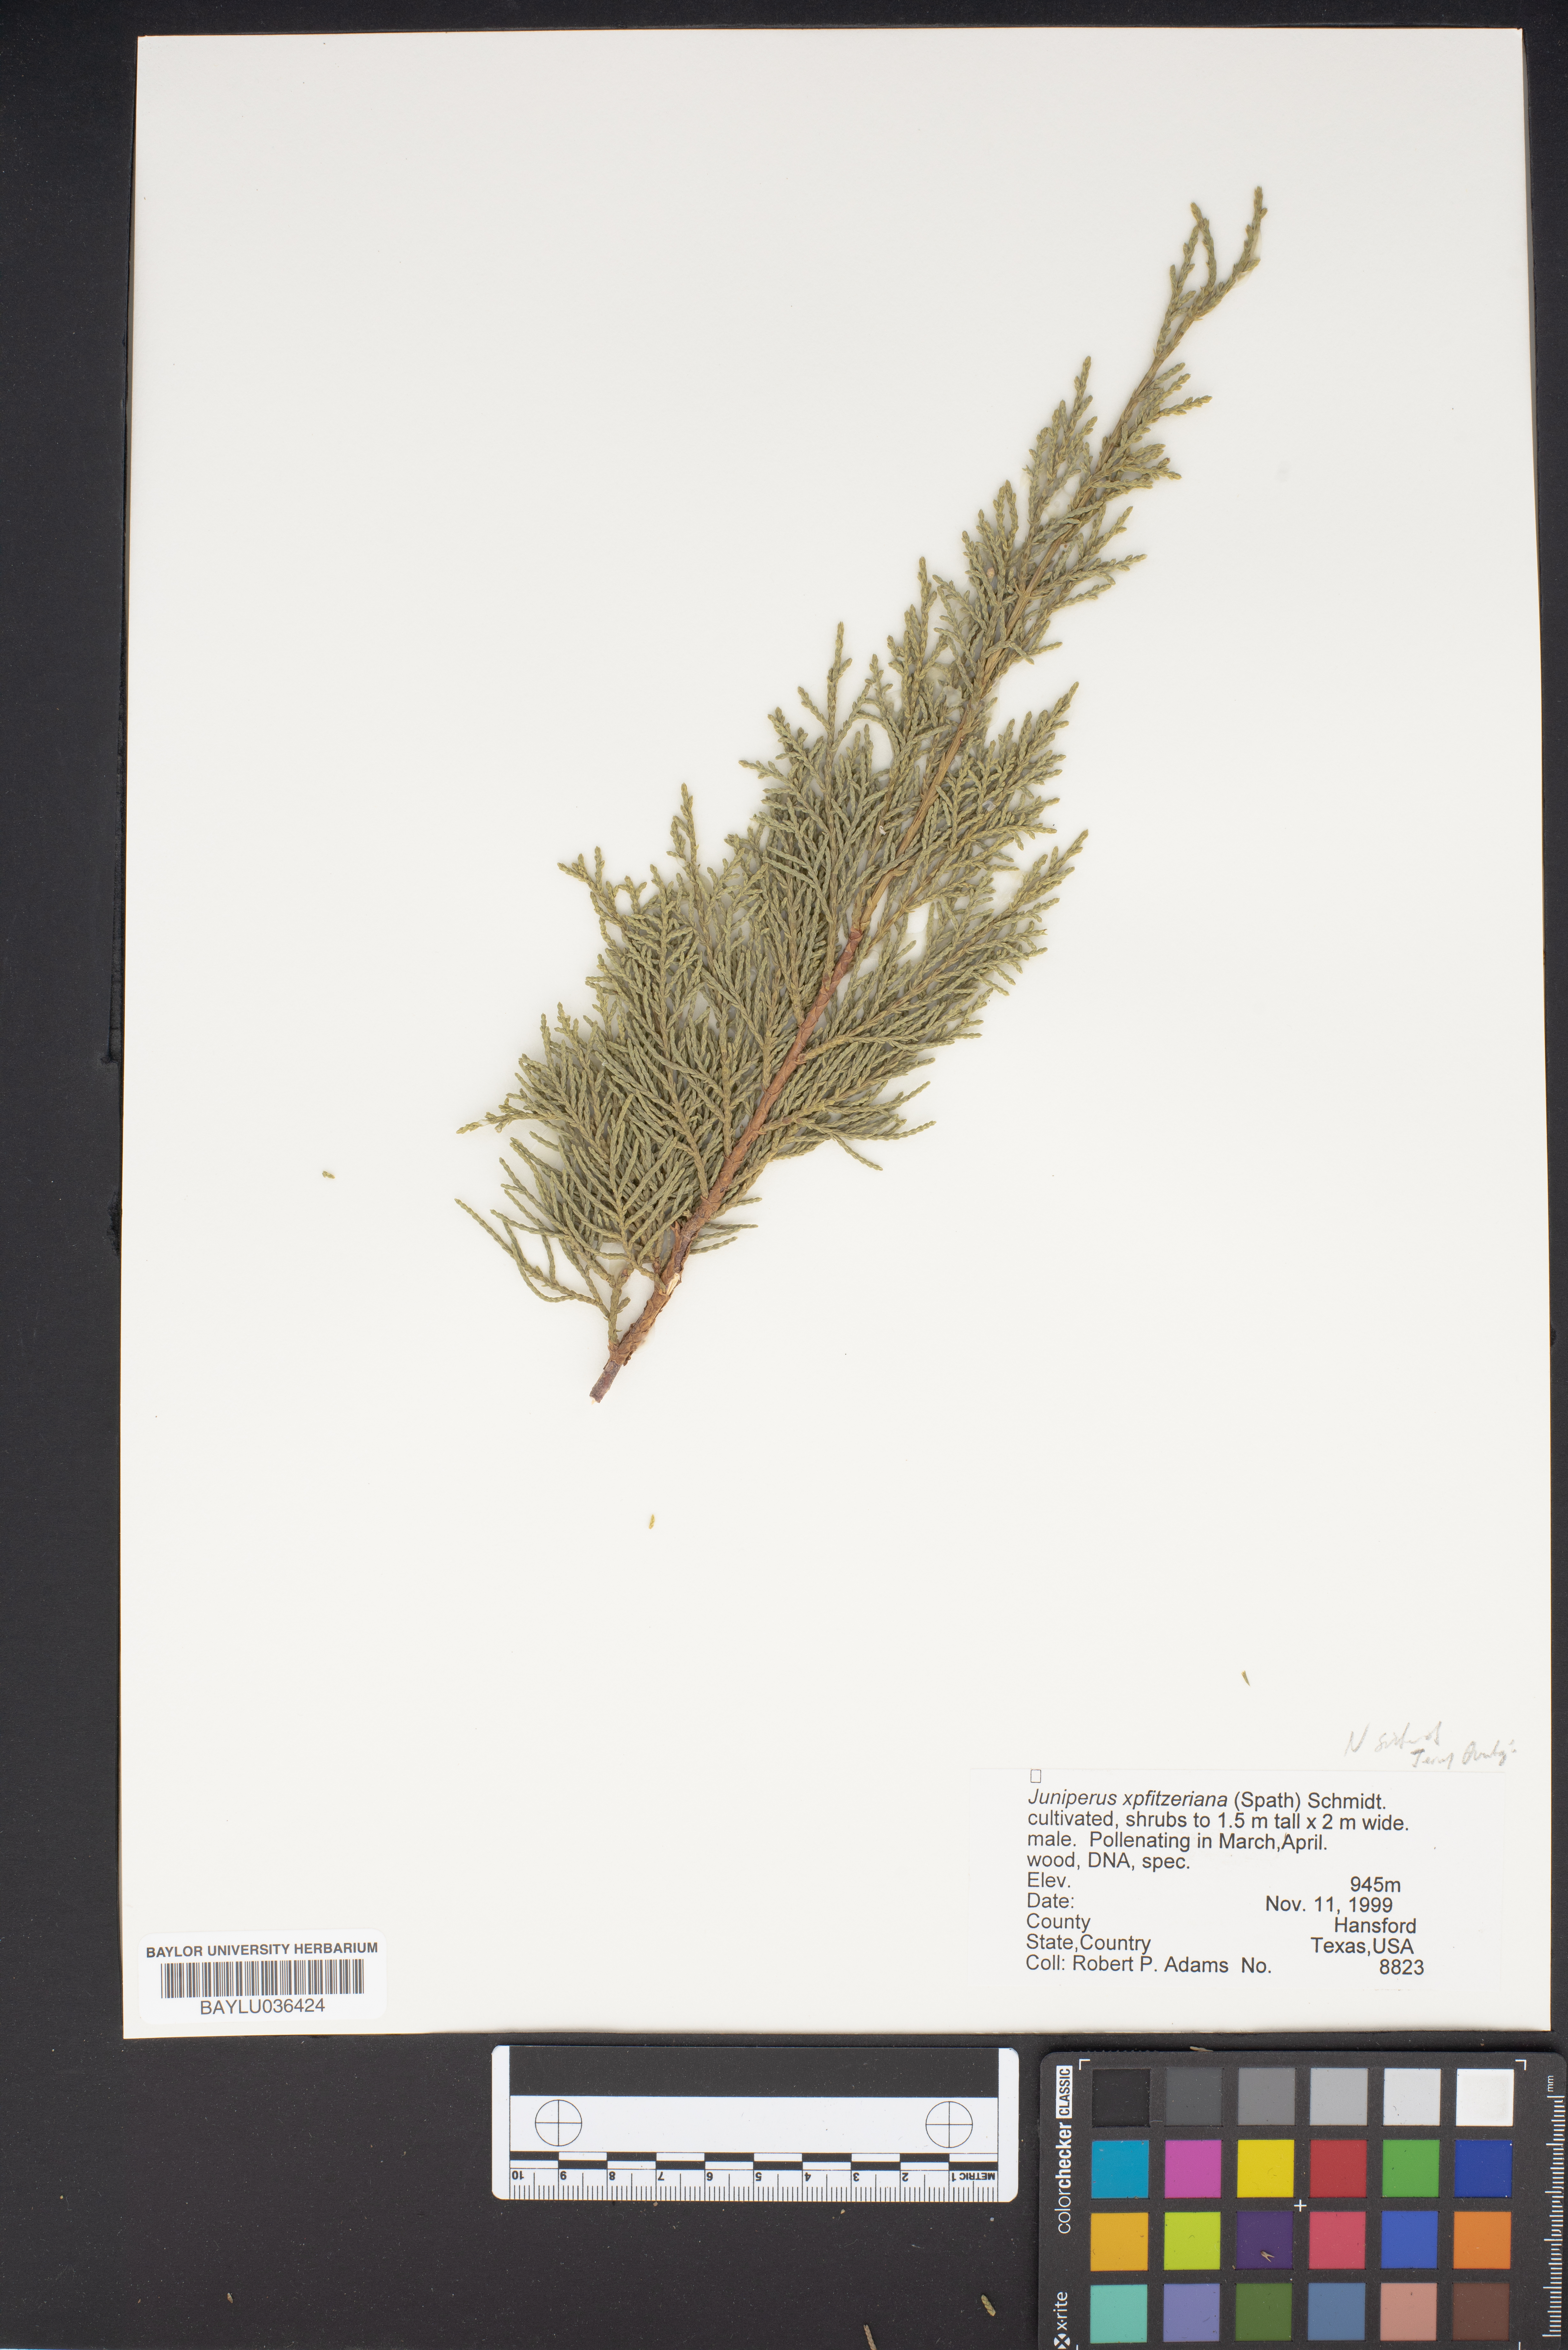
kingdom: Plantae
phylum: Tracheophyta
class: Pinopsida
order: Pinales
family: Cupressaceae
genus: Juniperus
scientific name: Juniperus pfitzeriana
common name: Pfitzer juniper
